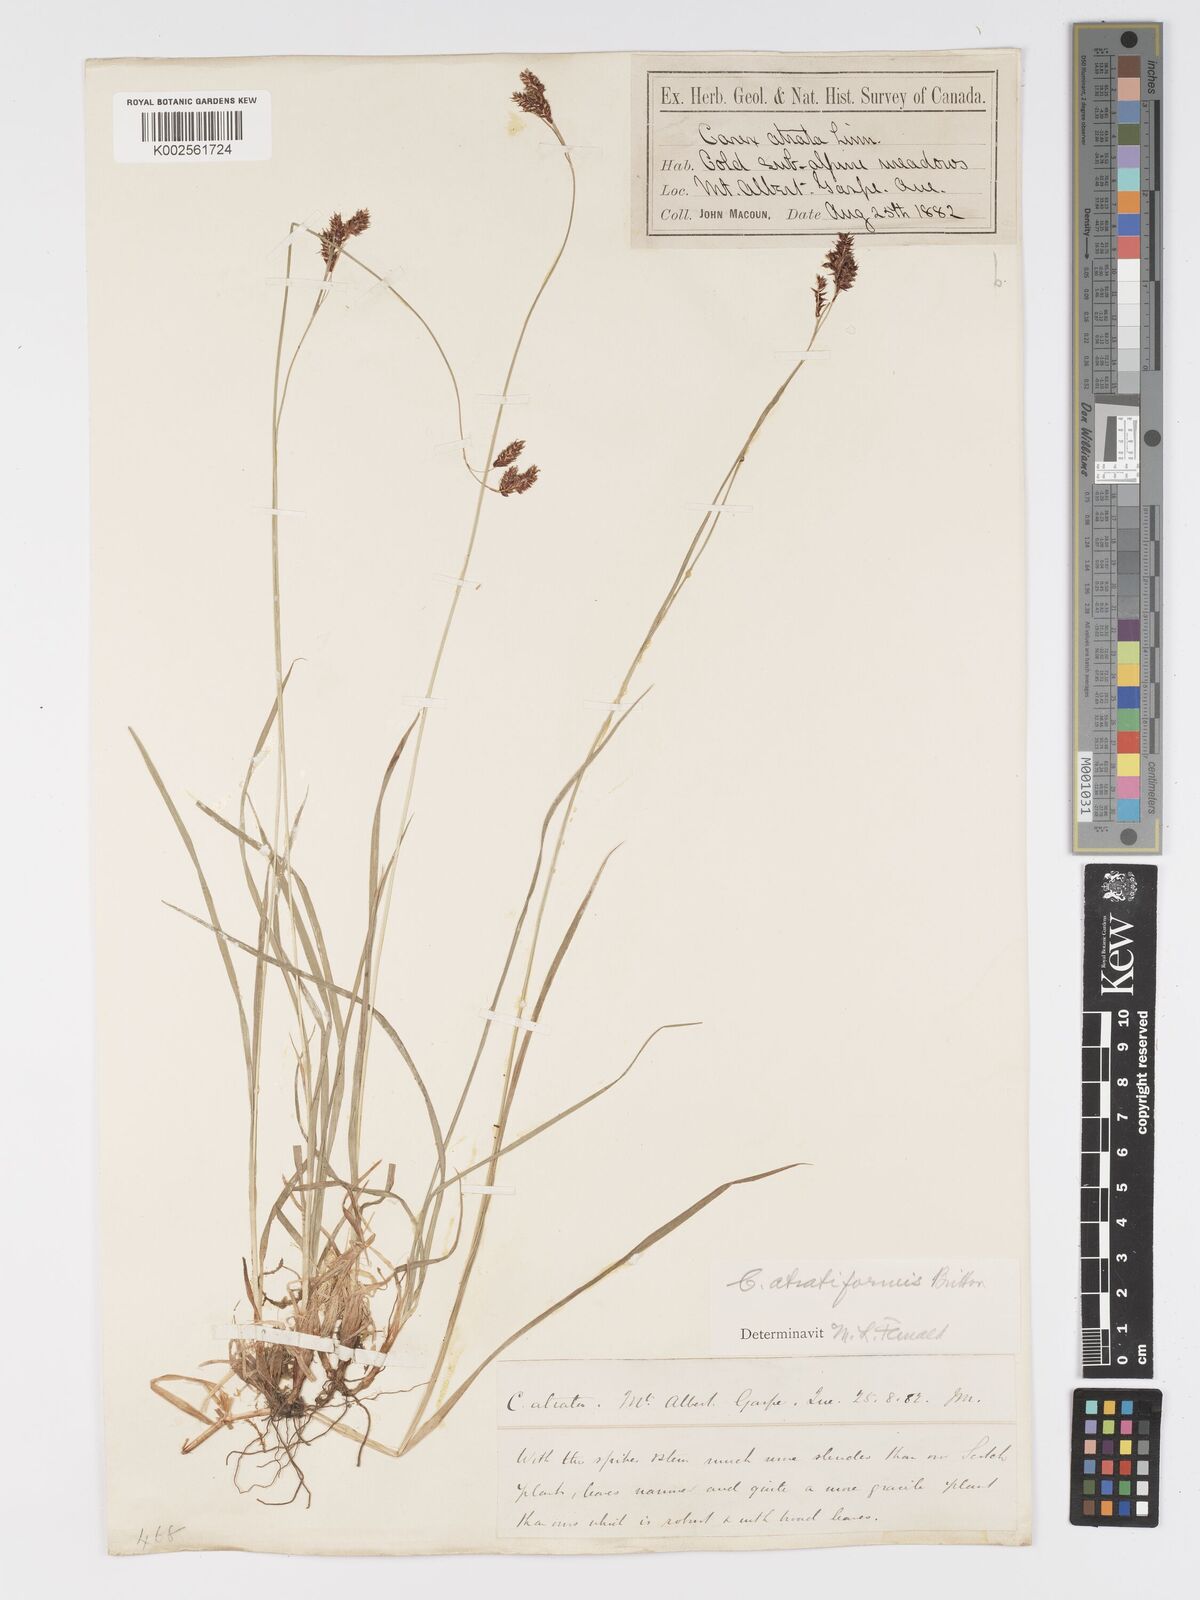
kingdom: Plantae
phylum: Tracheophyta
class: Liliopsida
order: Poales
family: Cyperaceae
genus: Carex
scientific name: Carex atratiformis
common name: Black sedge
